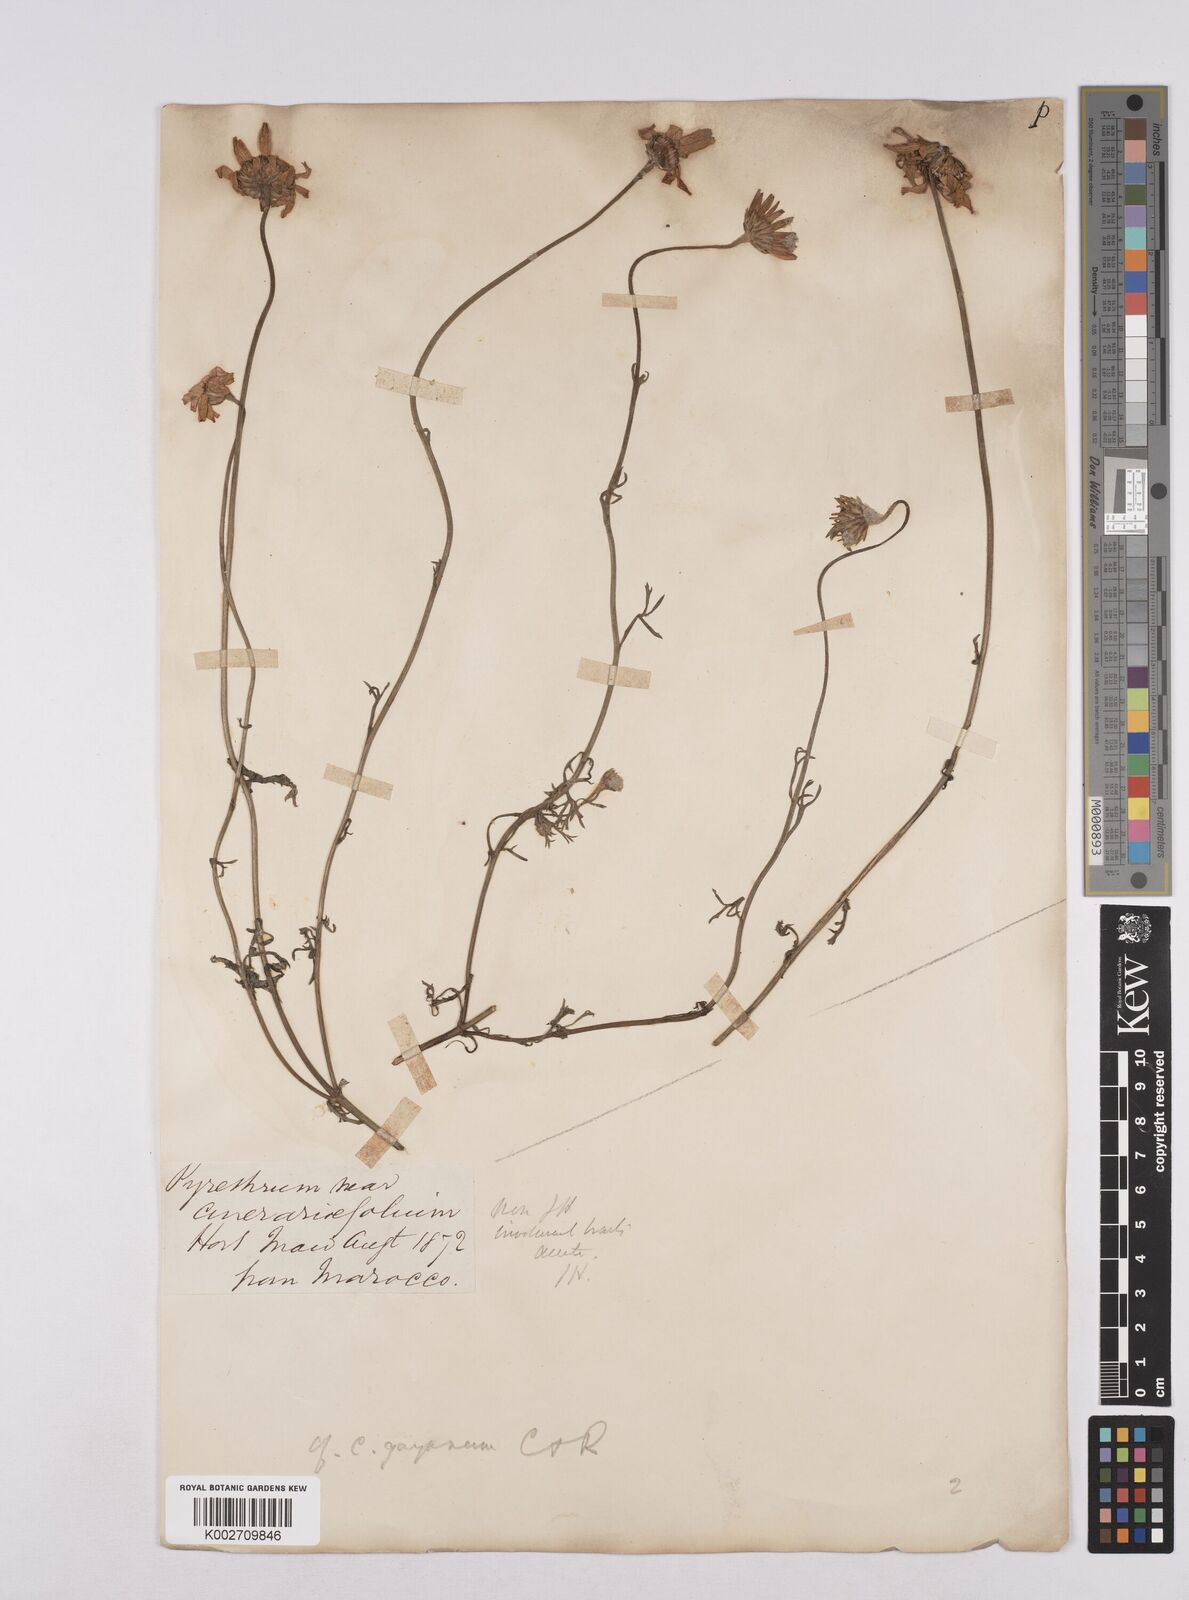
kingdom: Plantae
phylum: Tracheophyta
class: Magnoliopsida
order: Asterales
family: Asteraceae
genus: Rhodanthemum
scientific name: Rhodanthemum gayanum
